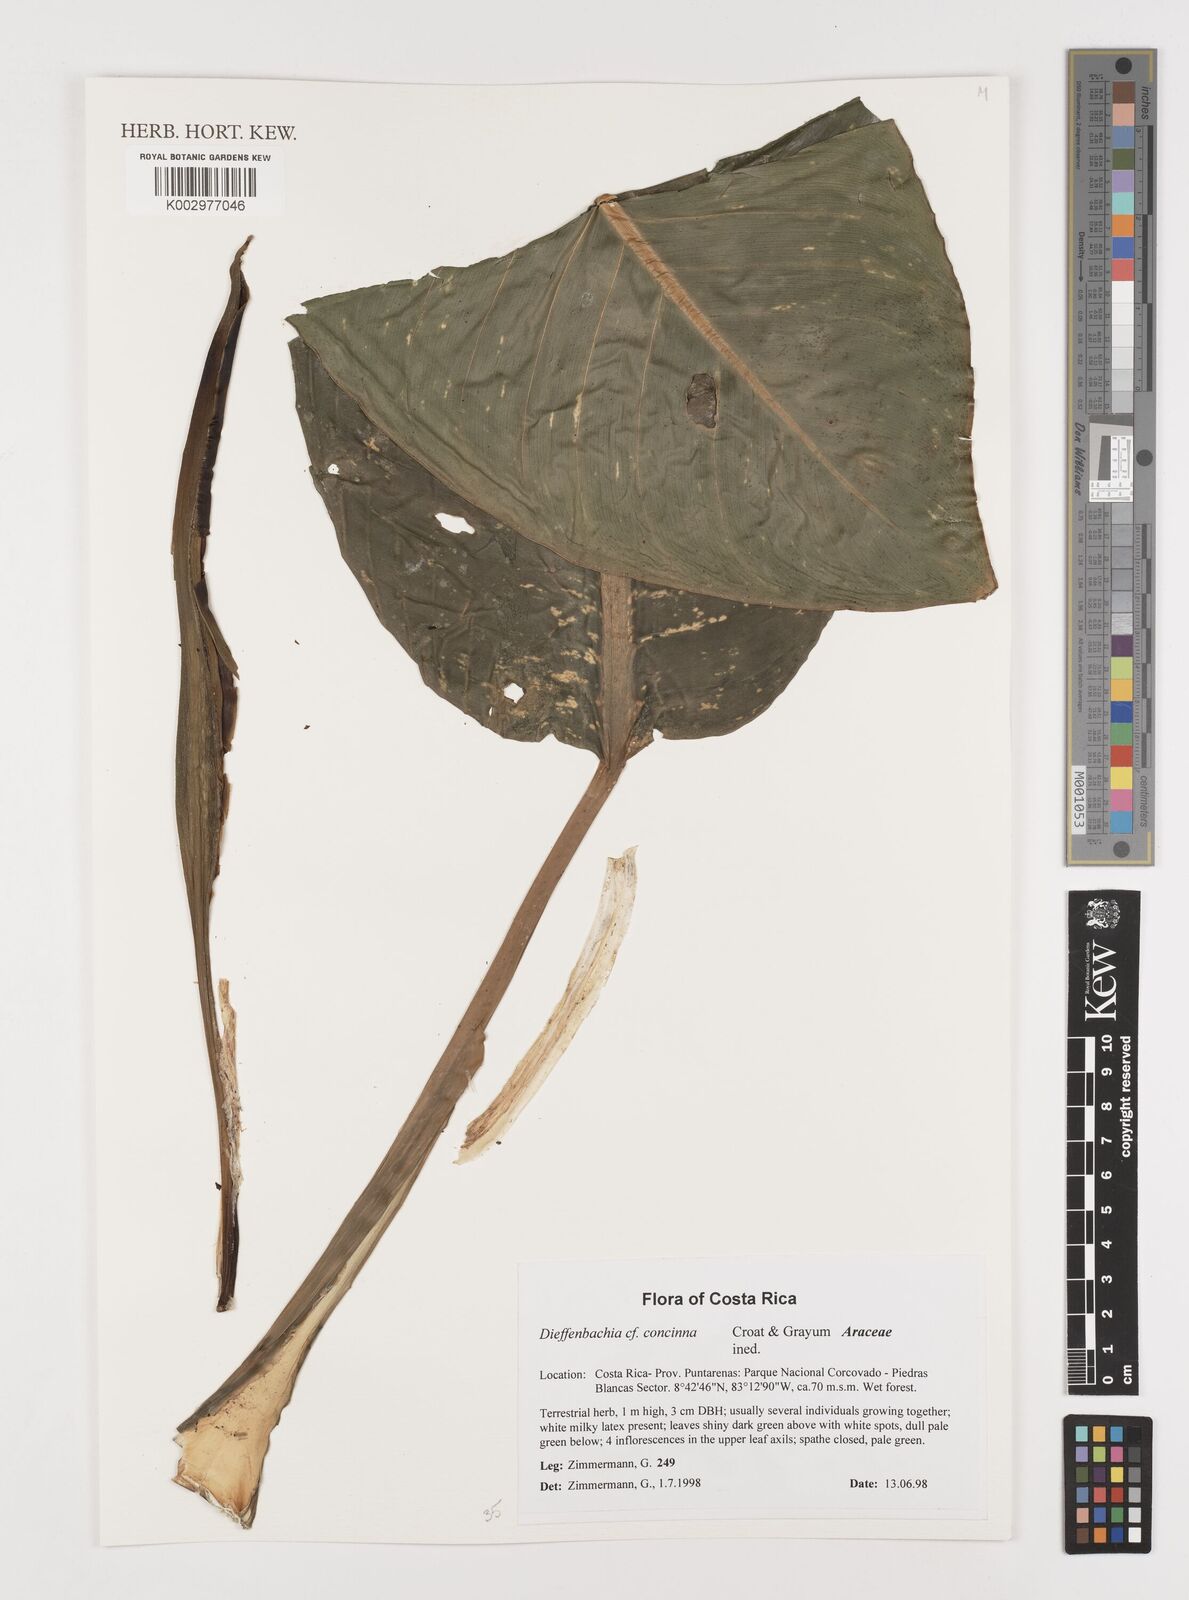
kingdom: Plantae
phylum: Tracheophyta
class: Liliopsida
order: Alismatales
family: Araceae
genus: Dieffenbachia
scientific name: Dieffenbachia concinna
